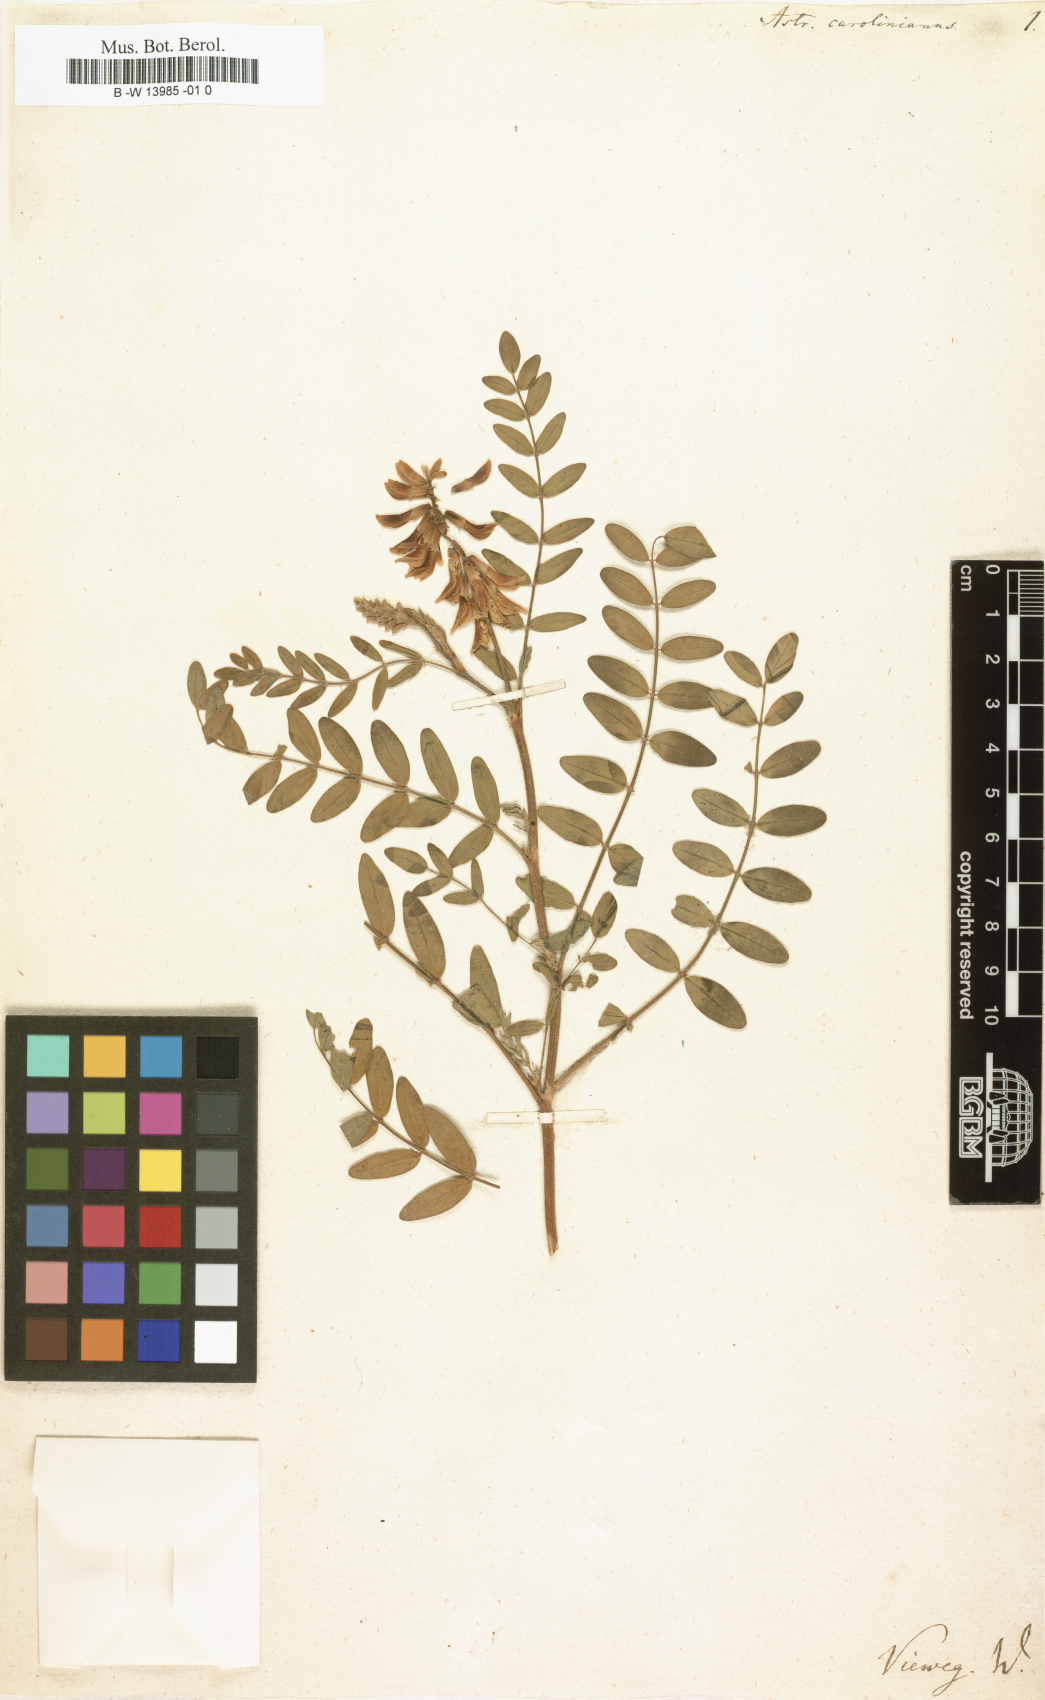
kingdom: Plantae
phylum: Tracheophyta
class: Magnoliopsida
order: Fabales
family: Fabaceae
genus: Astragalus
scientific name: Astragalus canadensis
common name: Canada milk-vetch
